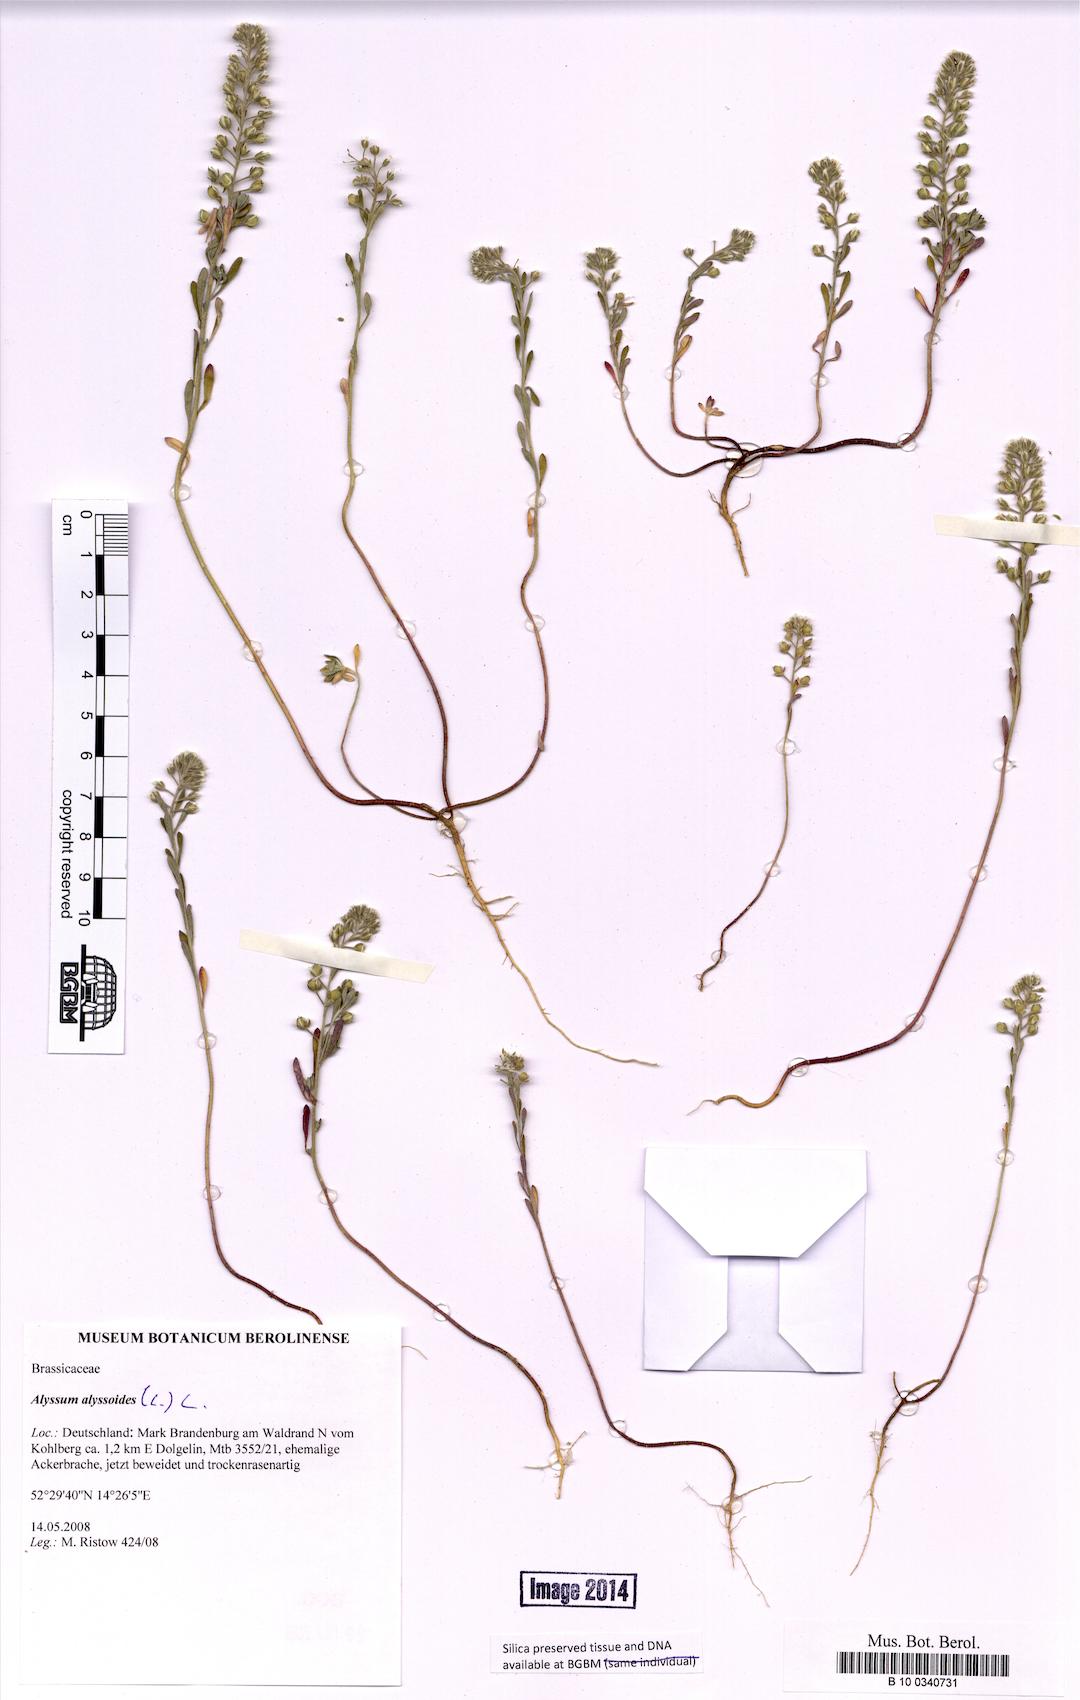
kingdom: Plantae
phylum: Tracheophyta
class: Magnoliopsida
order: Brassicales
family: Brassicaceae
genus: Alyssum
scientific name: Alyssum alyssoides
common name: Small alison
